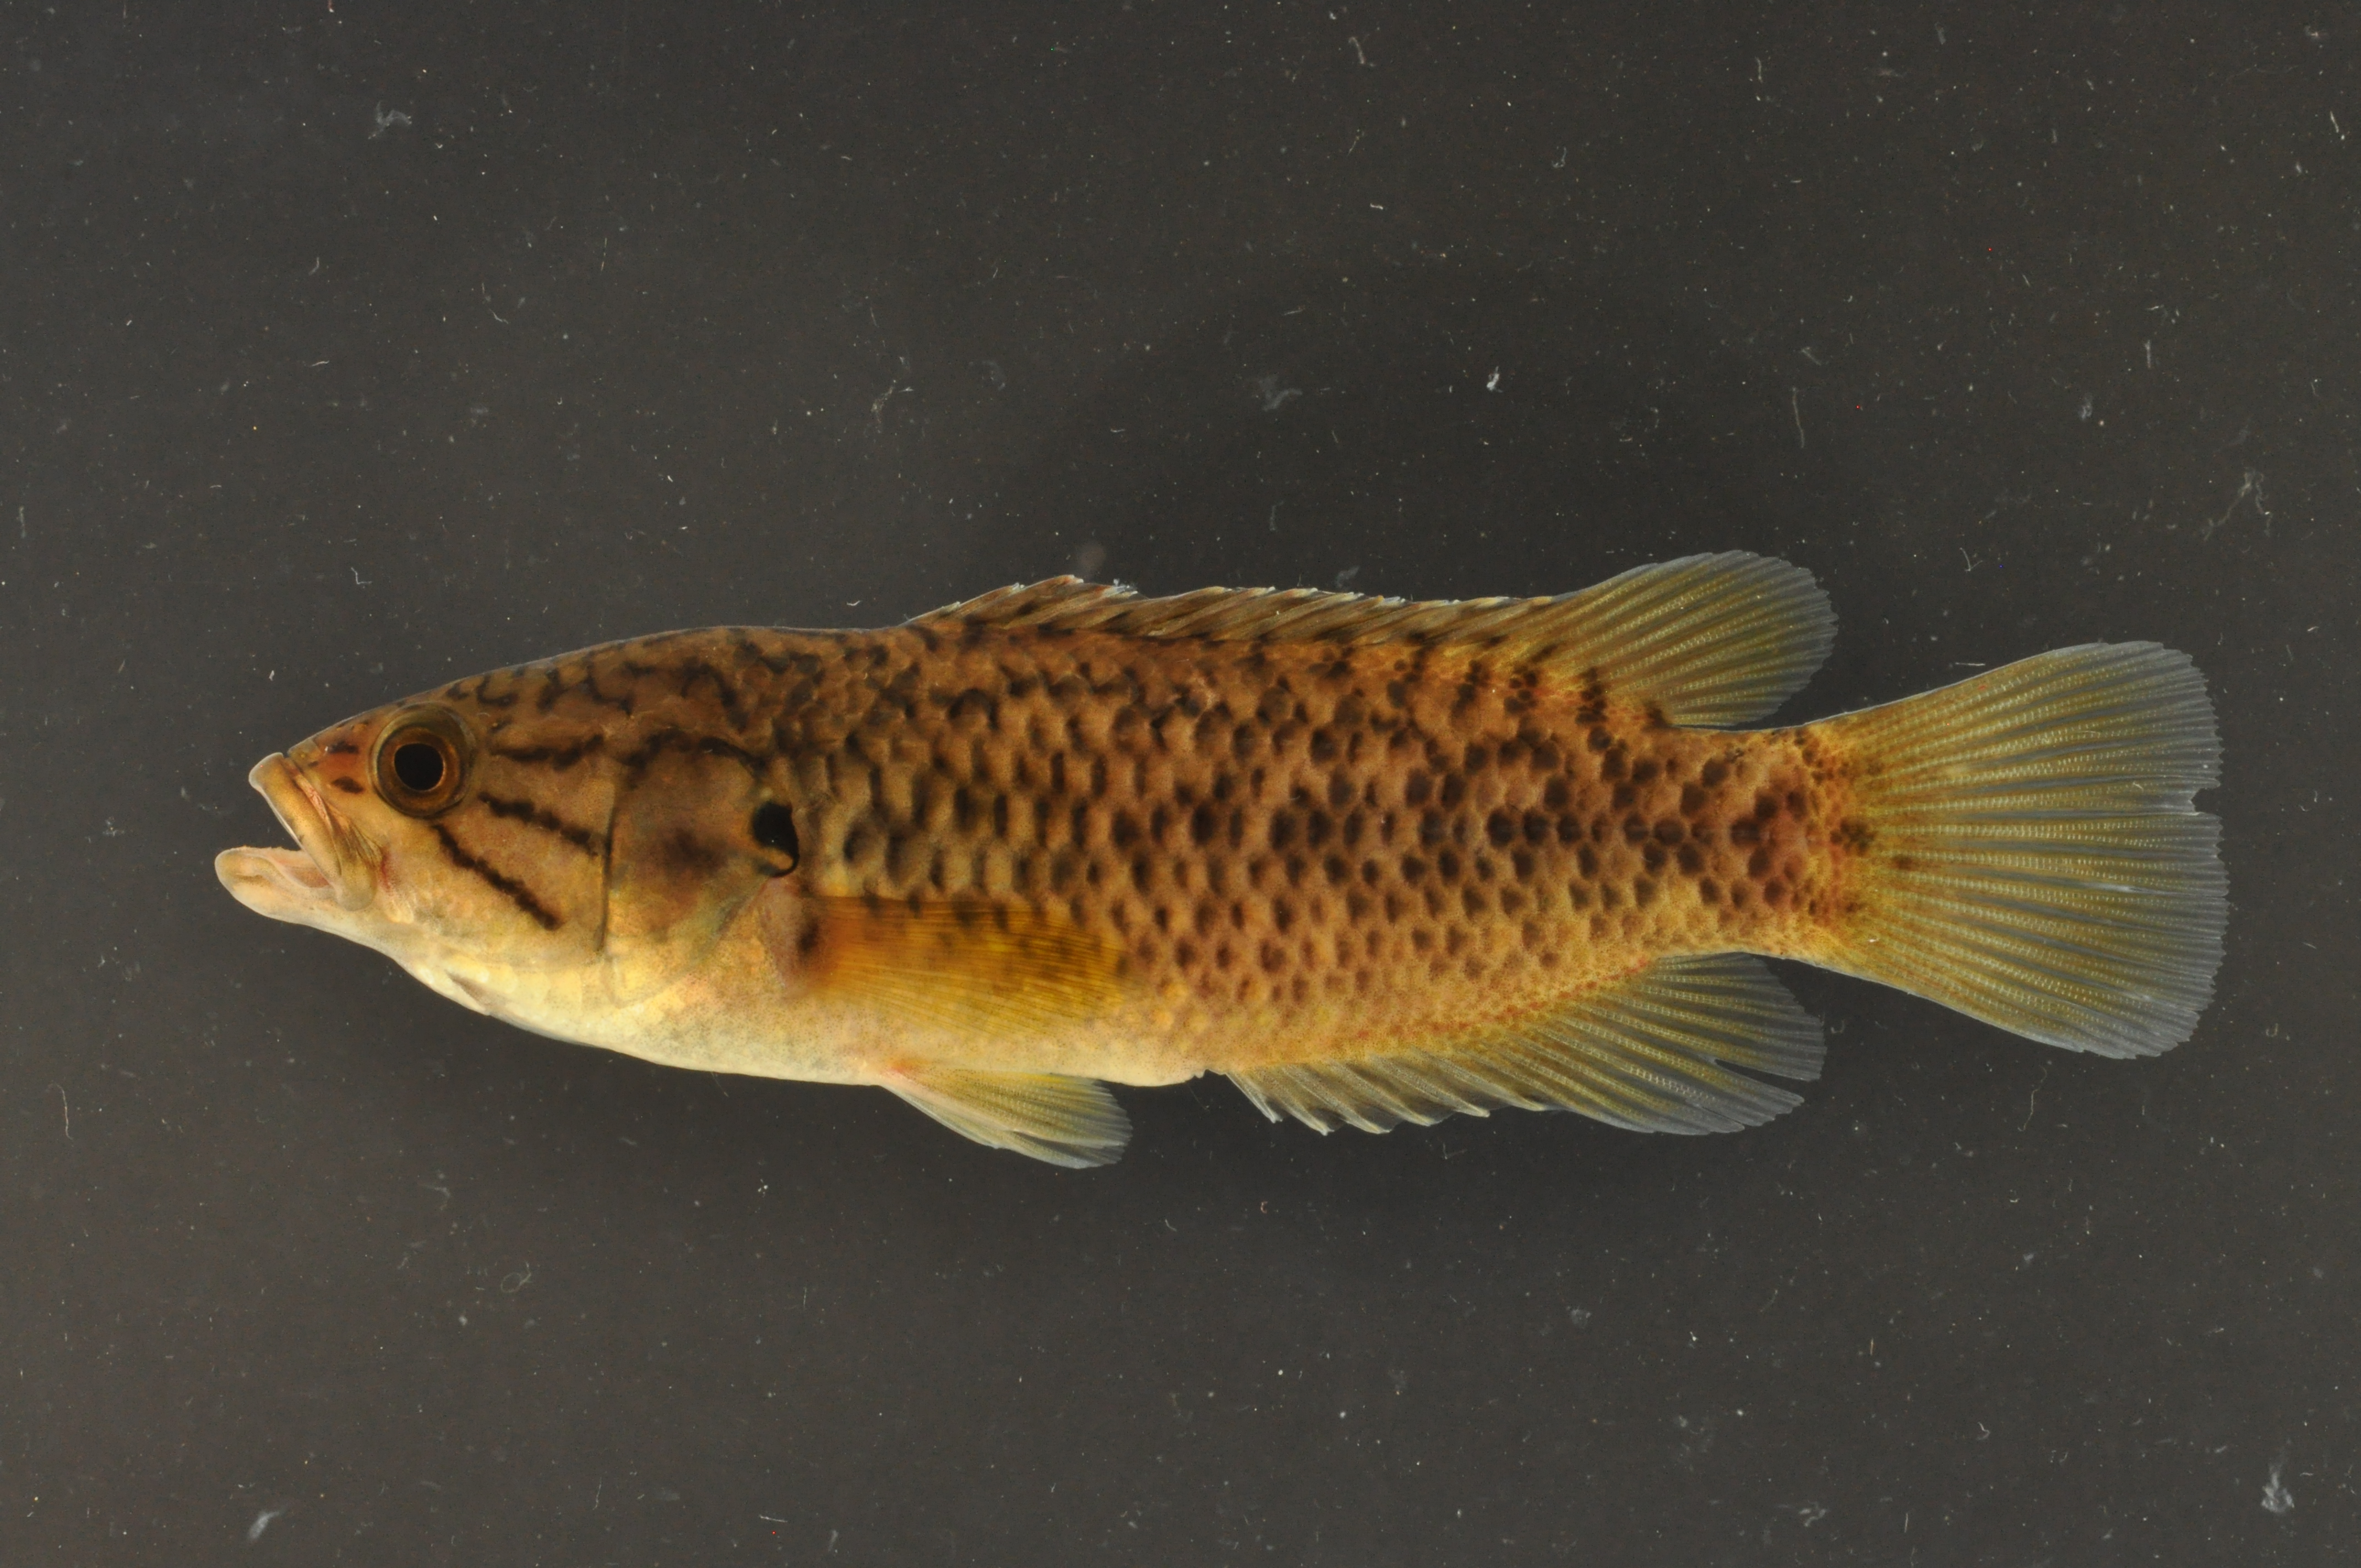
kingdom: Animalia
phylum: Chordata
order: Perciformes
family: Anabantidae
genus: Sandelia
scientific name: Sandelia capensis
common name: Cape kurper
